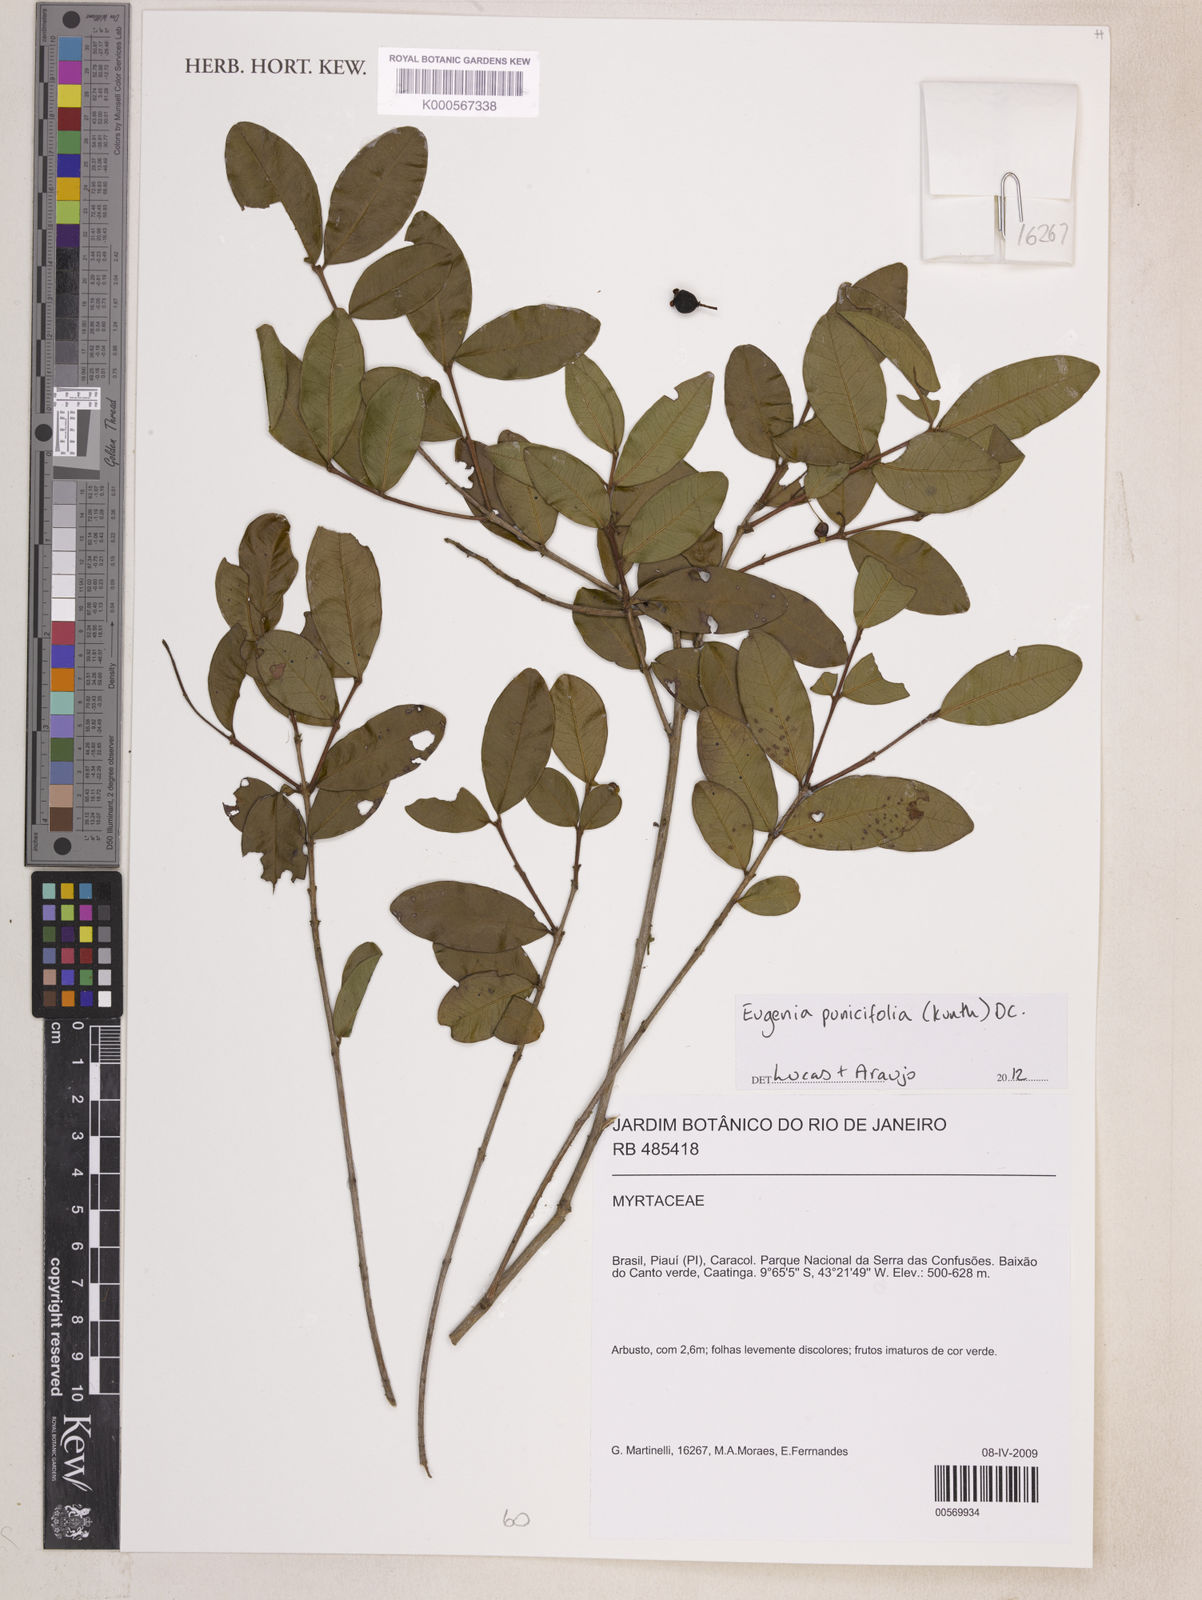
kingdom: Plantae
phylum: Tracheophyta
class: Magnoliopsida
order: Myrtales
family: Myrtaceae
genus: Eugenia
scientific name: Eugenia punicifolia
